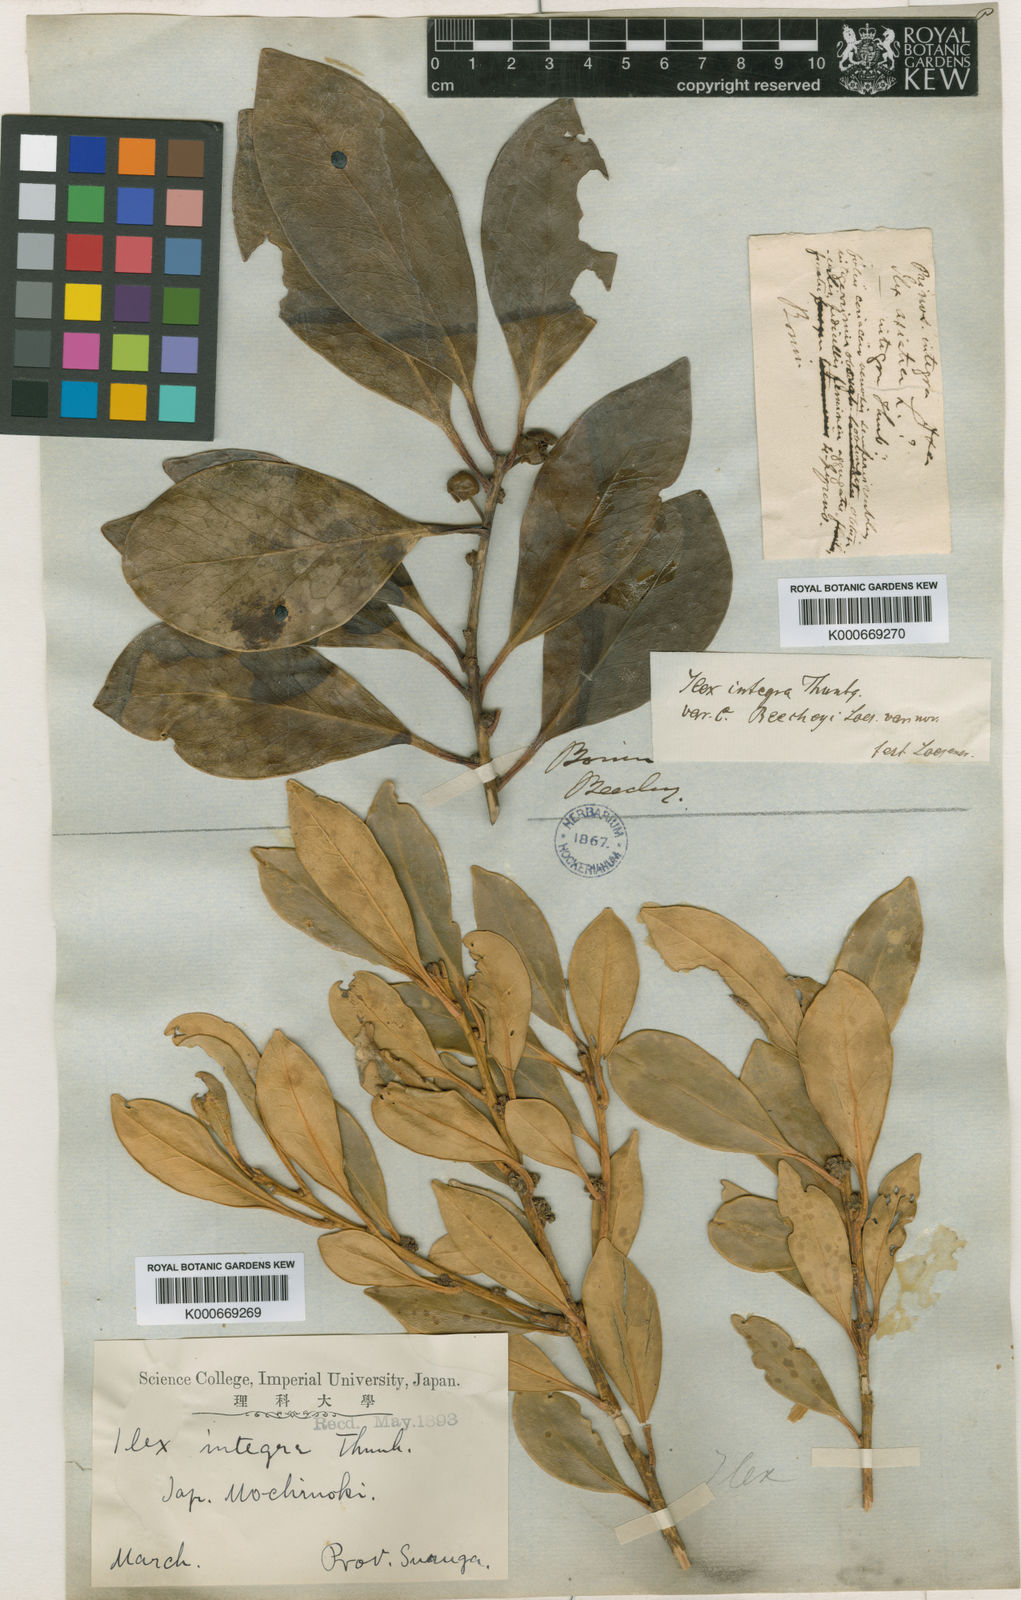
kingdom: Plantae
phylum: Tracheophyta
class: Magnoliopsida
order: Aquifoliales
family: Aquifoliaceae
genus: Ilex
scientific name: Ilex integra
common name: Mochitree
